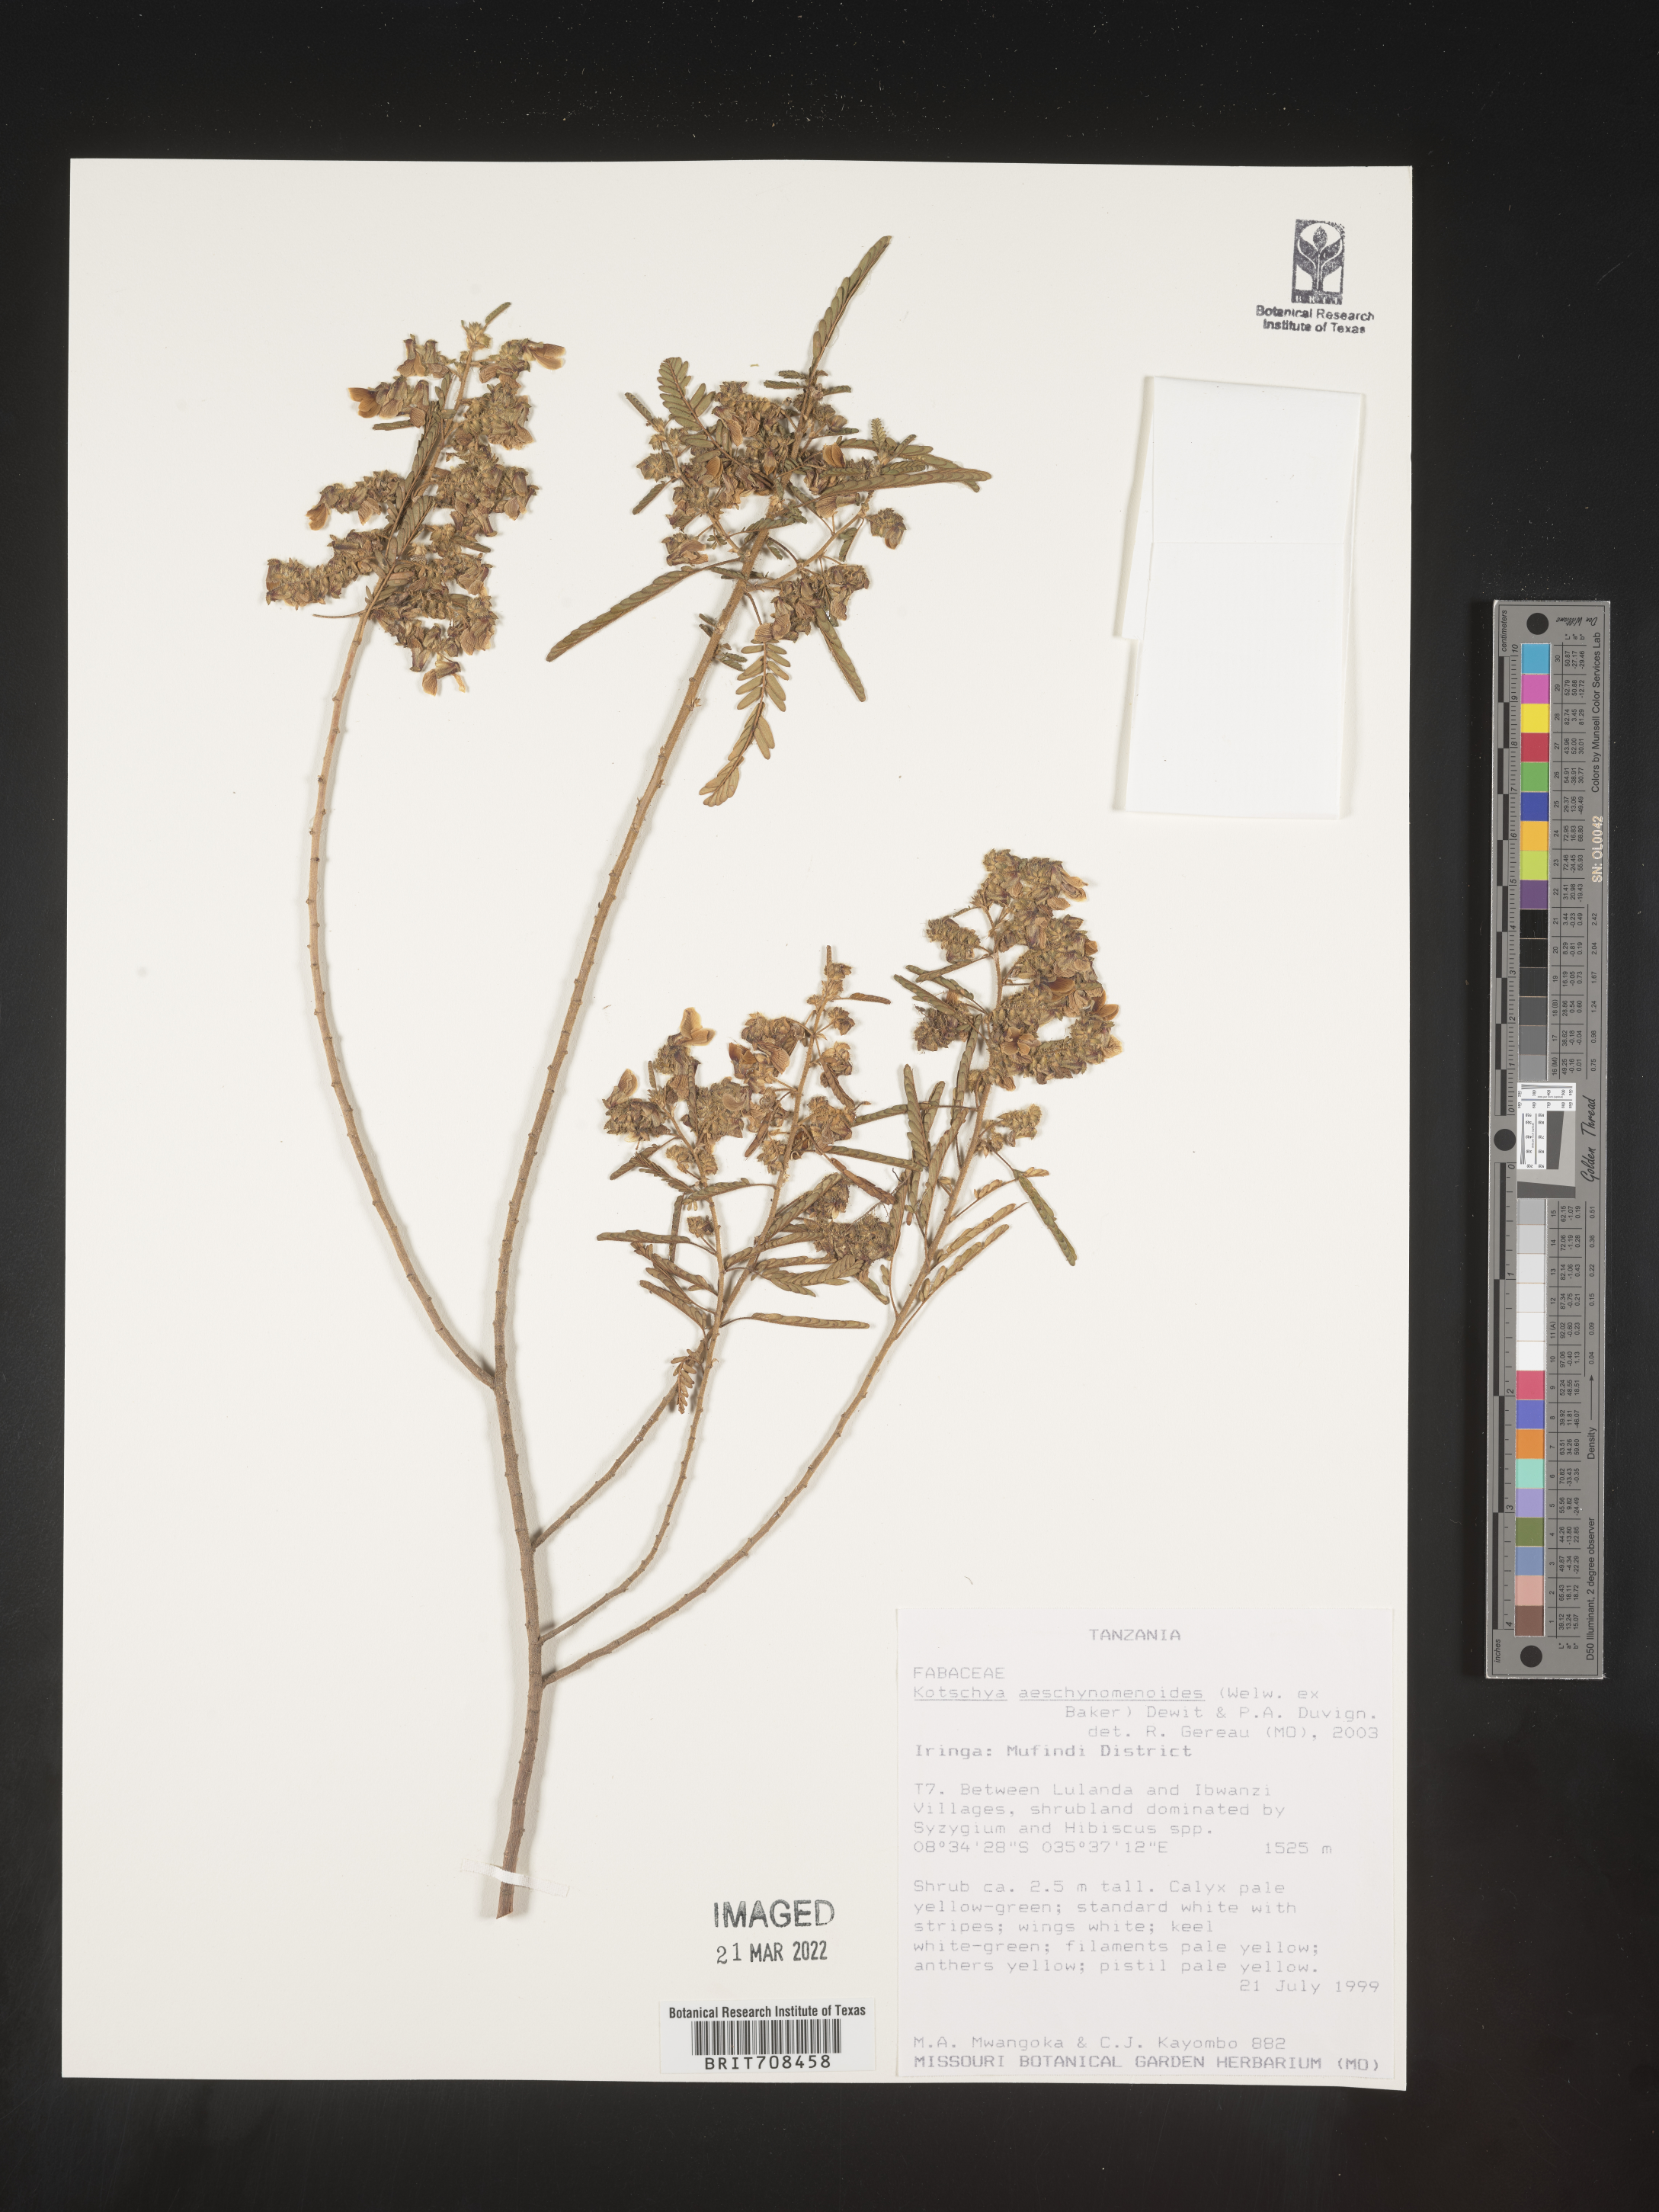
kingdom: Plantae
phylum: Tracheophyta
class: Magnoliopsida
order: Fabales
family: Fabaceae
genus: Kotschya
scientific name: Kotschya
